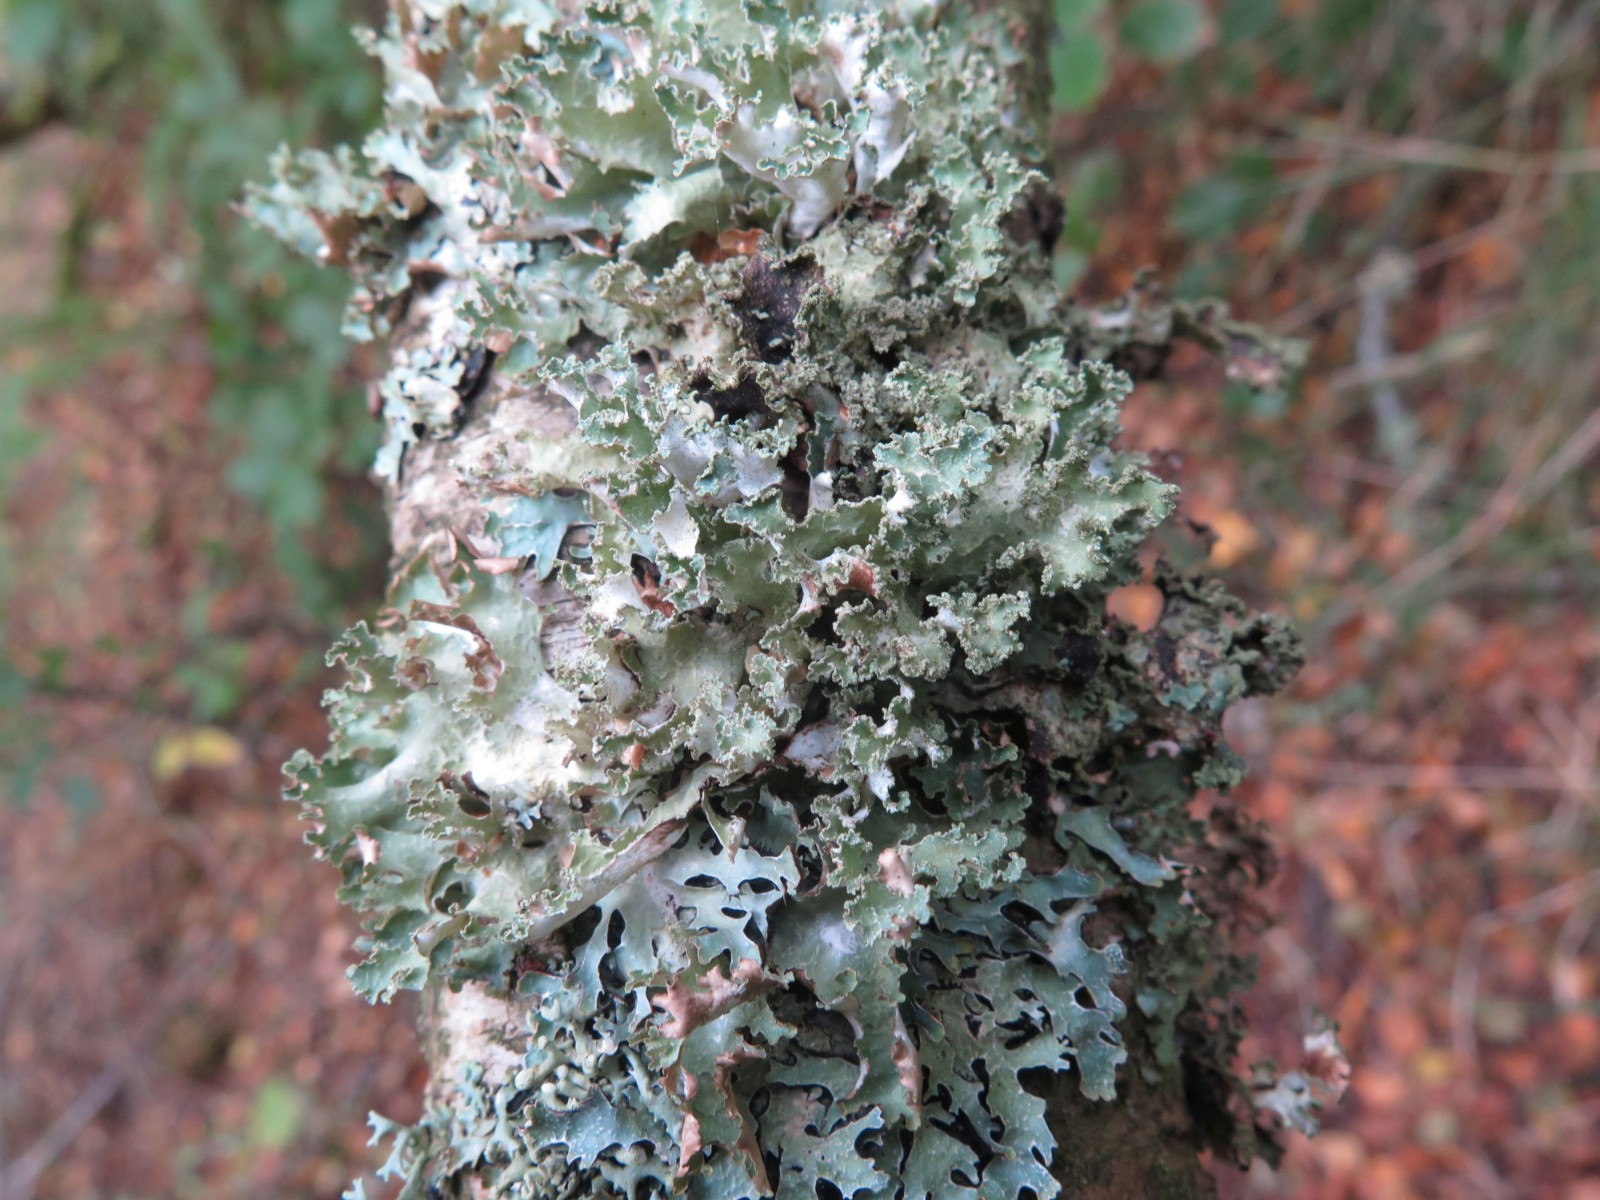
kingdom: Fungi
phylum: Ascomycota
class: Lecanoromycetes
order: Lecanorales
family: Parmeliaceae
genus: Platismatia
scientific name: Platismatia glauca
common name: blågrå papirlav
